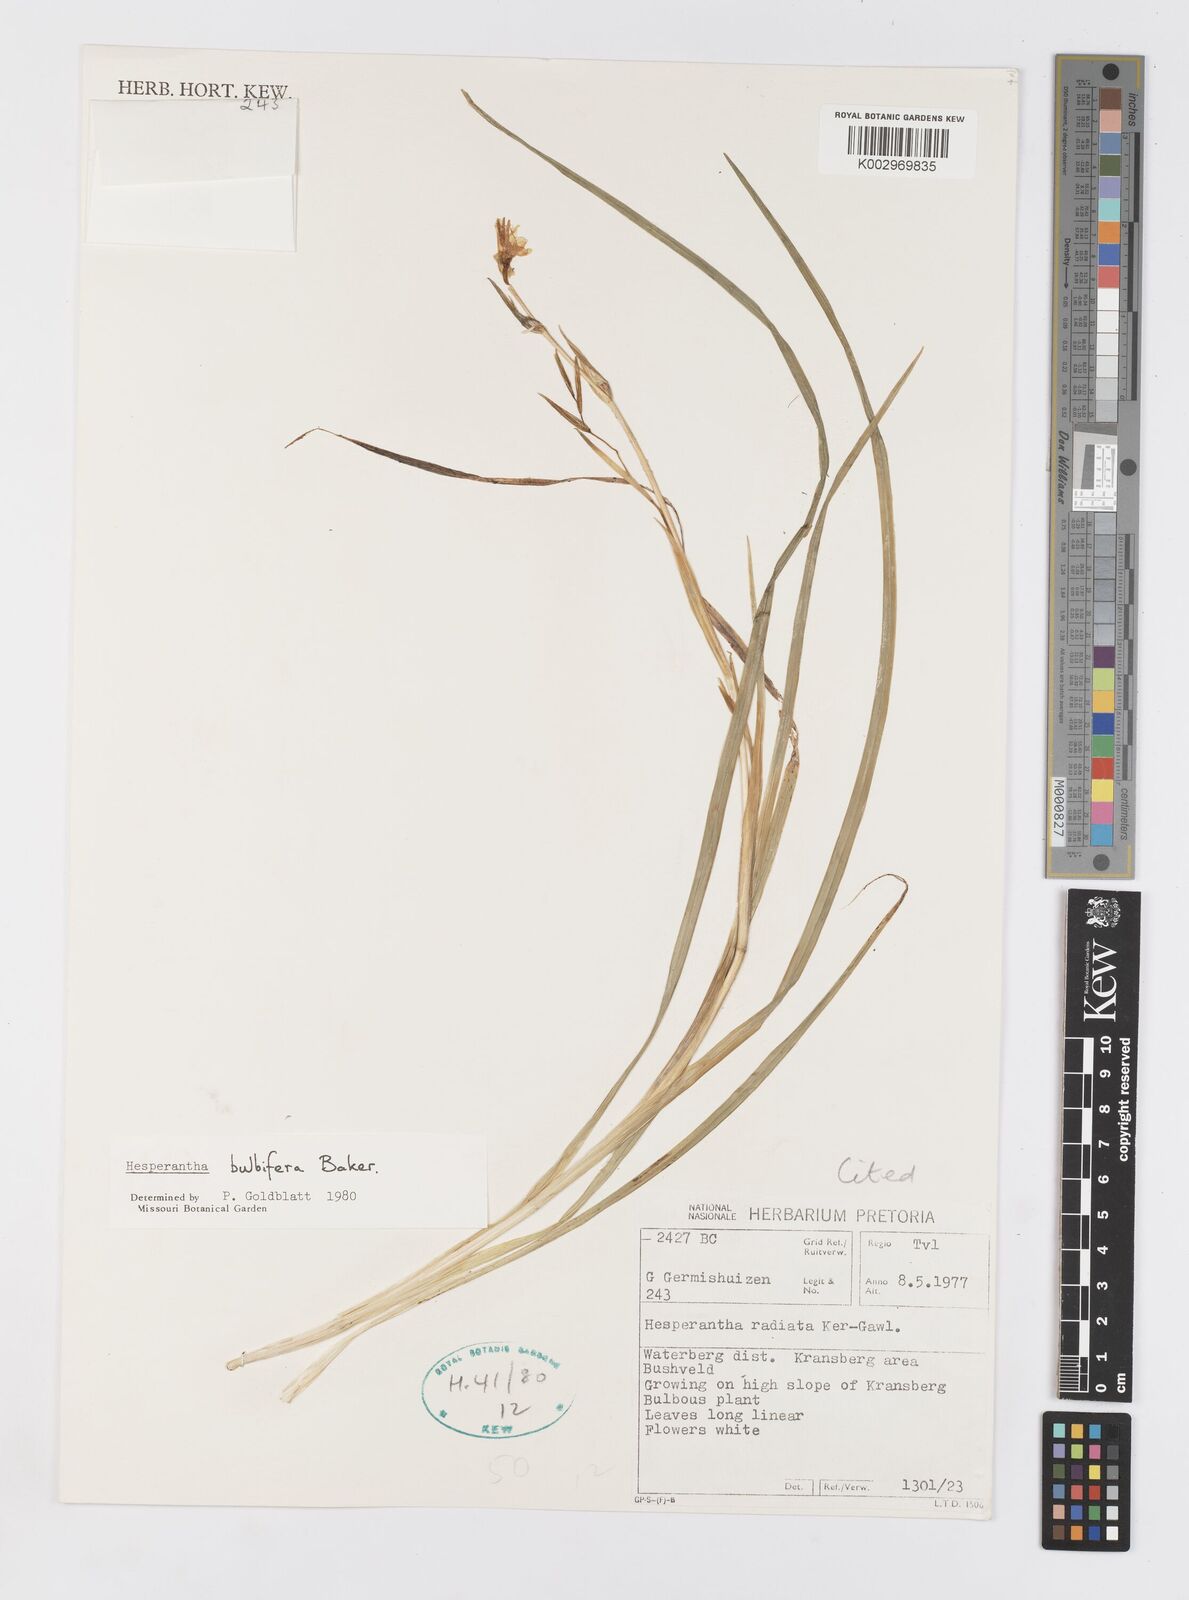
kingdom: Plantae
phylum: Tracheophyta
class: Liliopsida
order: Asparagales
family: Iridaceae
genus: Hesperantha
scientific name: Hesperantha bulbifera
